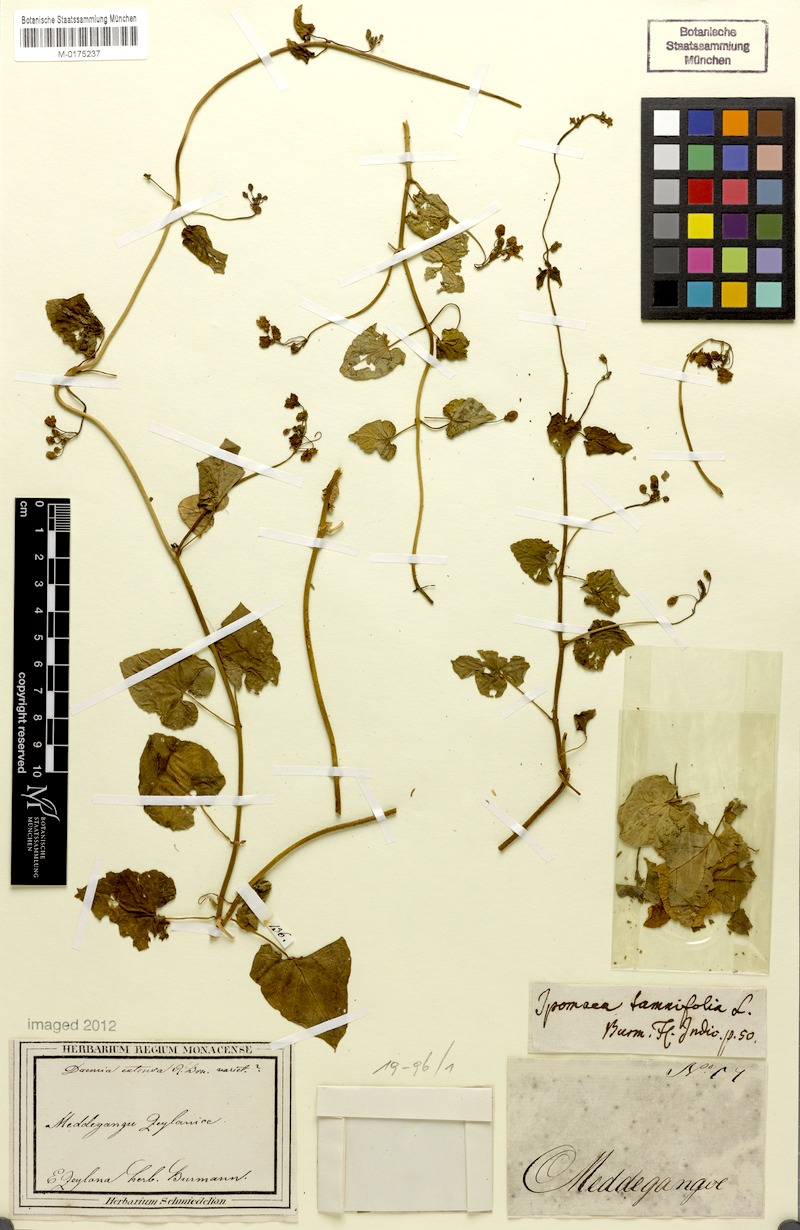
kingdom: Plantae
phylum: Tracheophyta
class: Magnoliopsida
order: Solanales
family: Convolvulaceae
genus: Jacquemontia
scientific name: Jacquemontia tamnifolia
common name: Hairy clustervine
